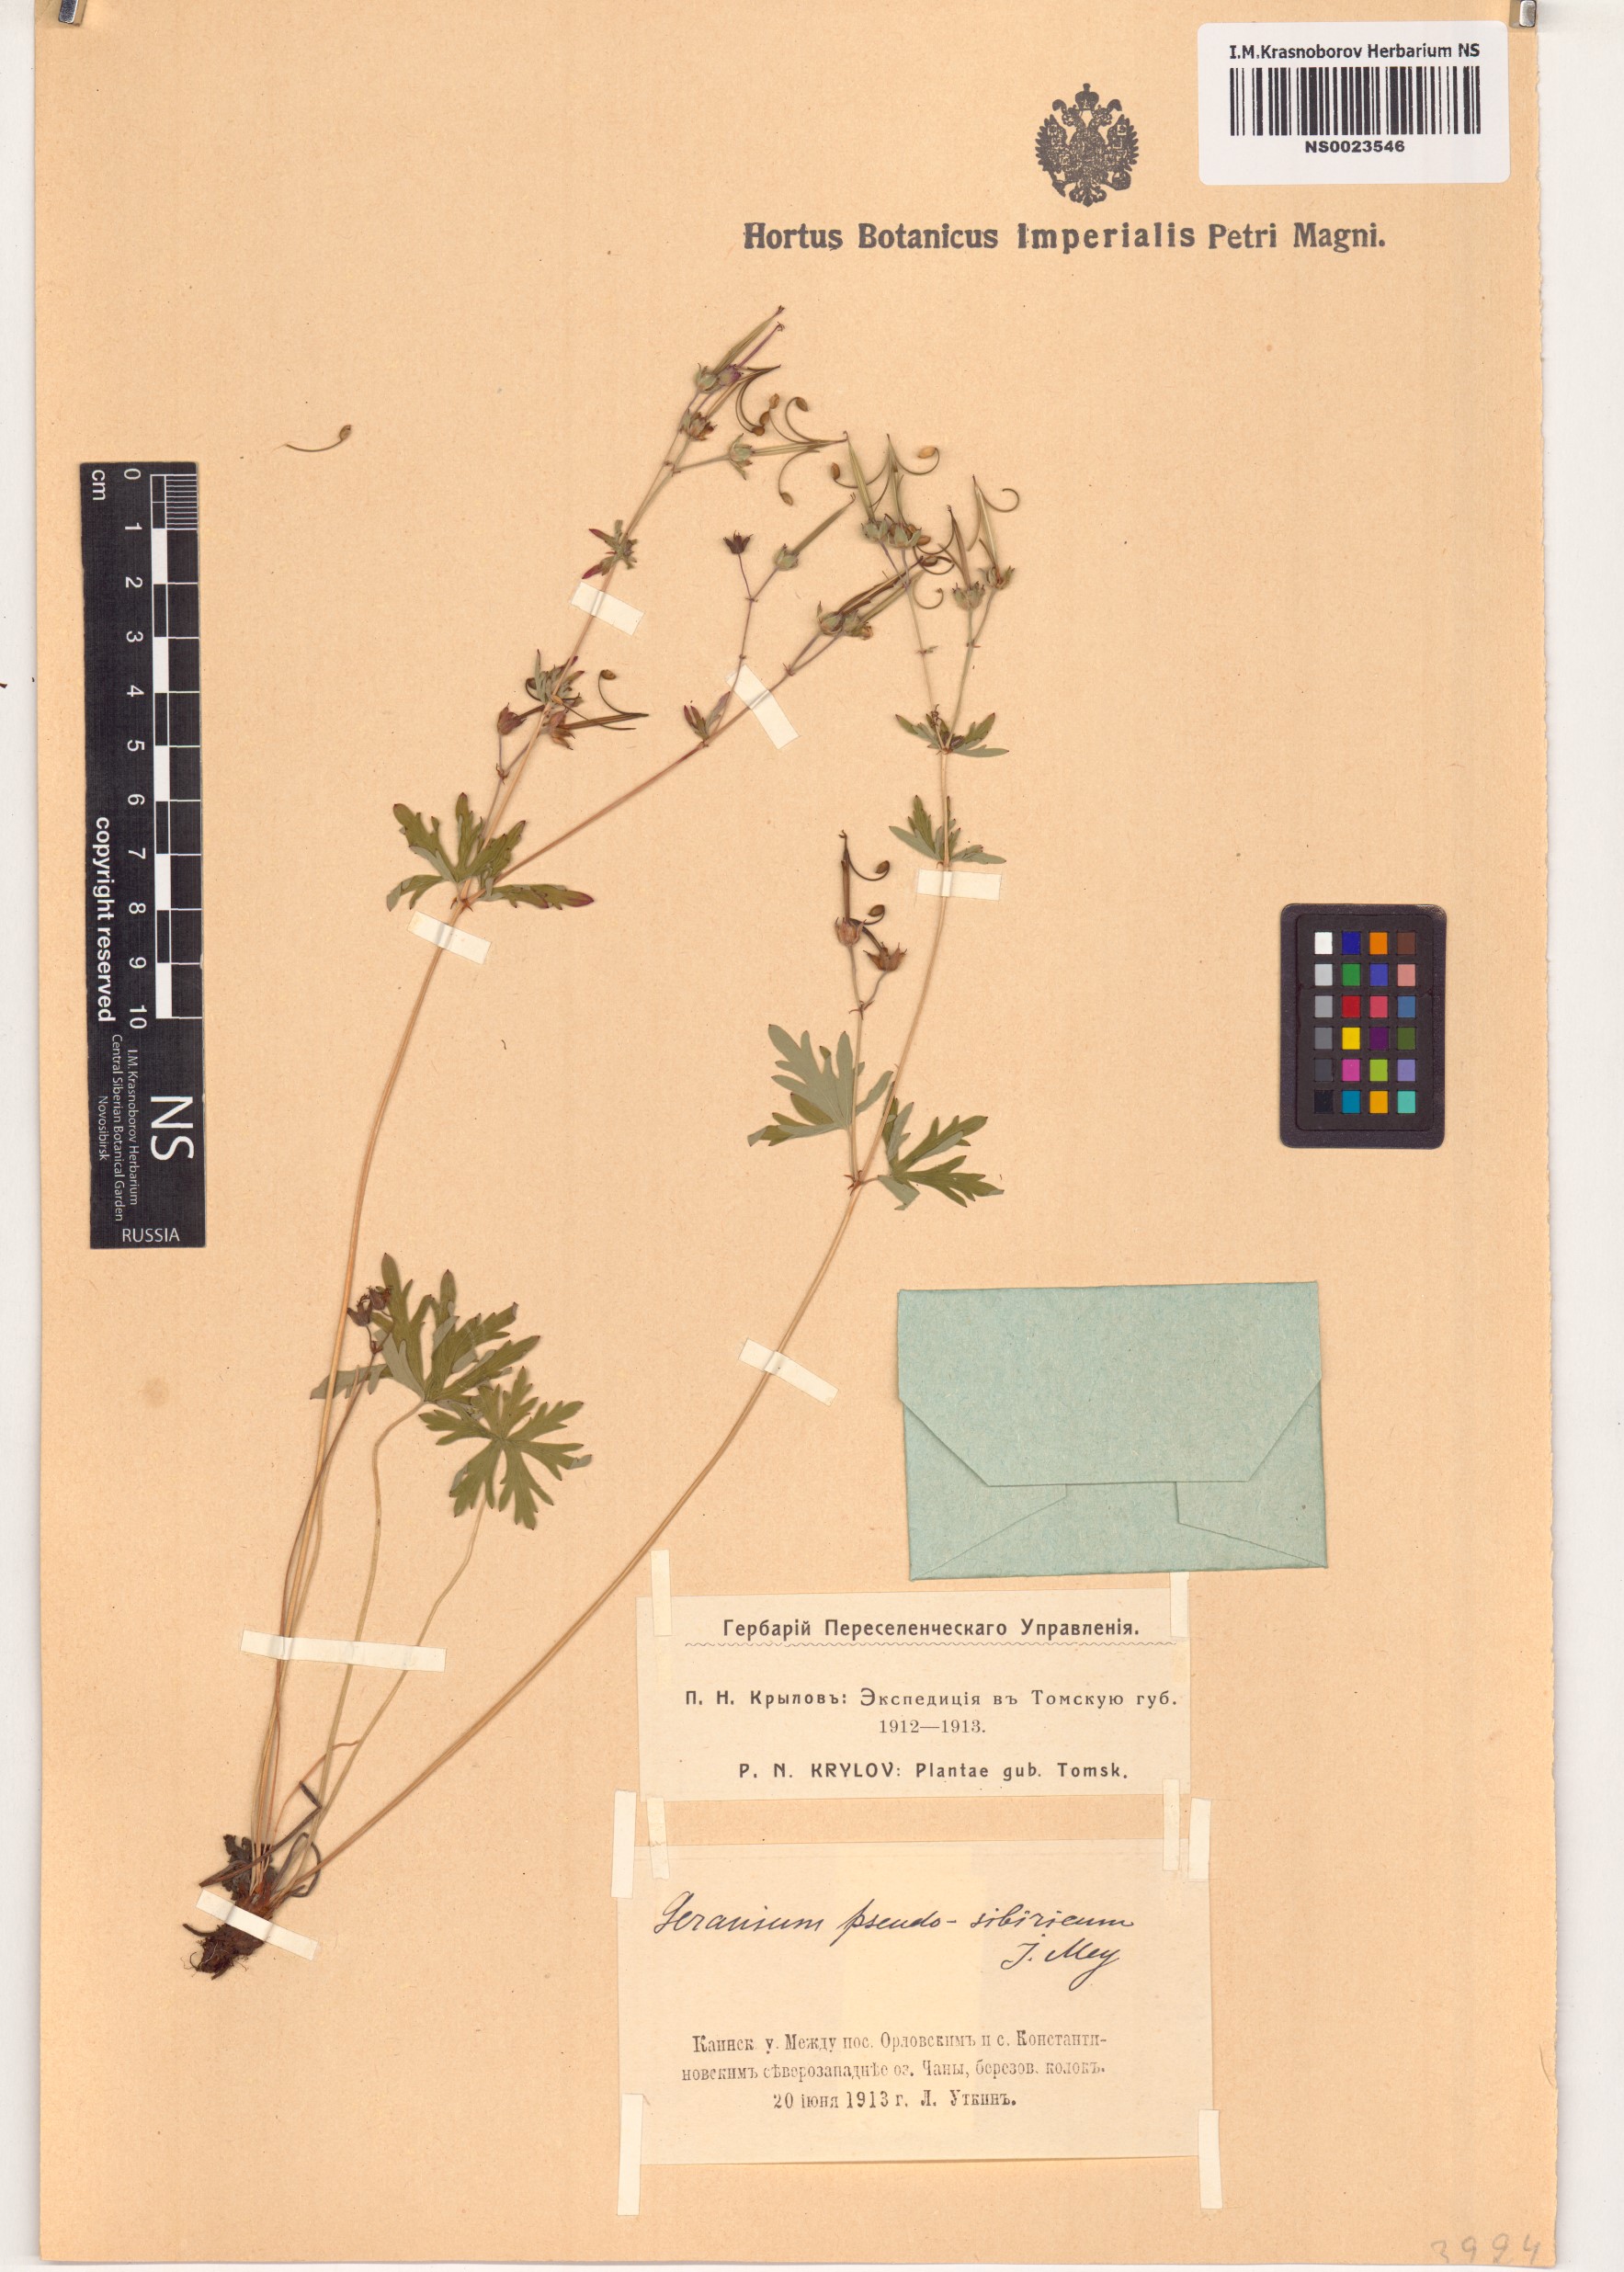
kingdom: Plantae
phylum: Tracheophyta
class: Magnoliopsida
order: Geraniales
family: Geraniaceae
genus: Geranium
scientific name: Geranium pseudosibiricum
